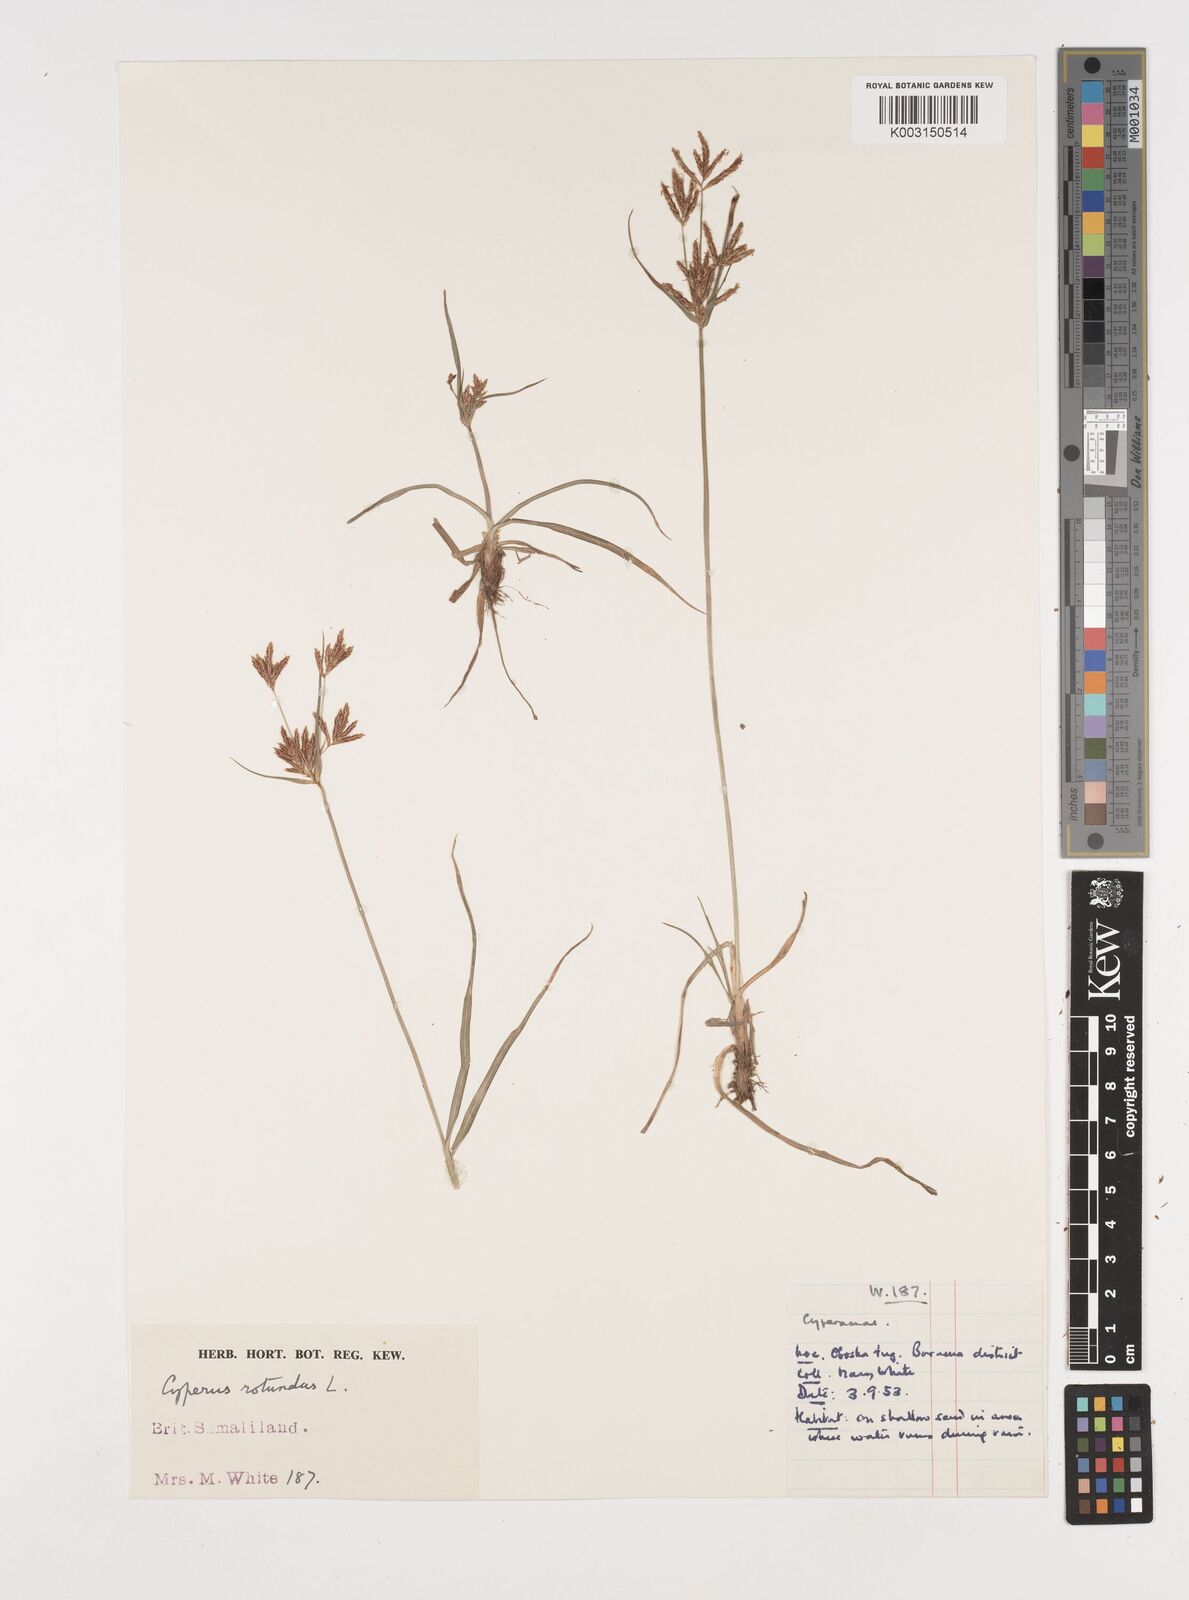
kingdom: Plantae
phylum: Tracheophyta
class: Liliopsida
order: Poales
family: Cyperaceae
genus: Cyperus
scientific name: Cyperus rotundus
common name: Nutgrass
